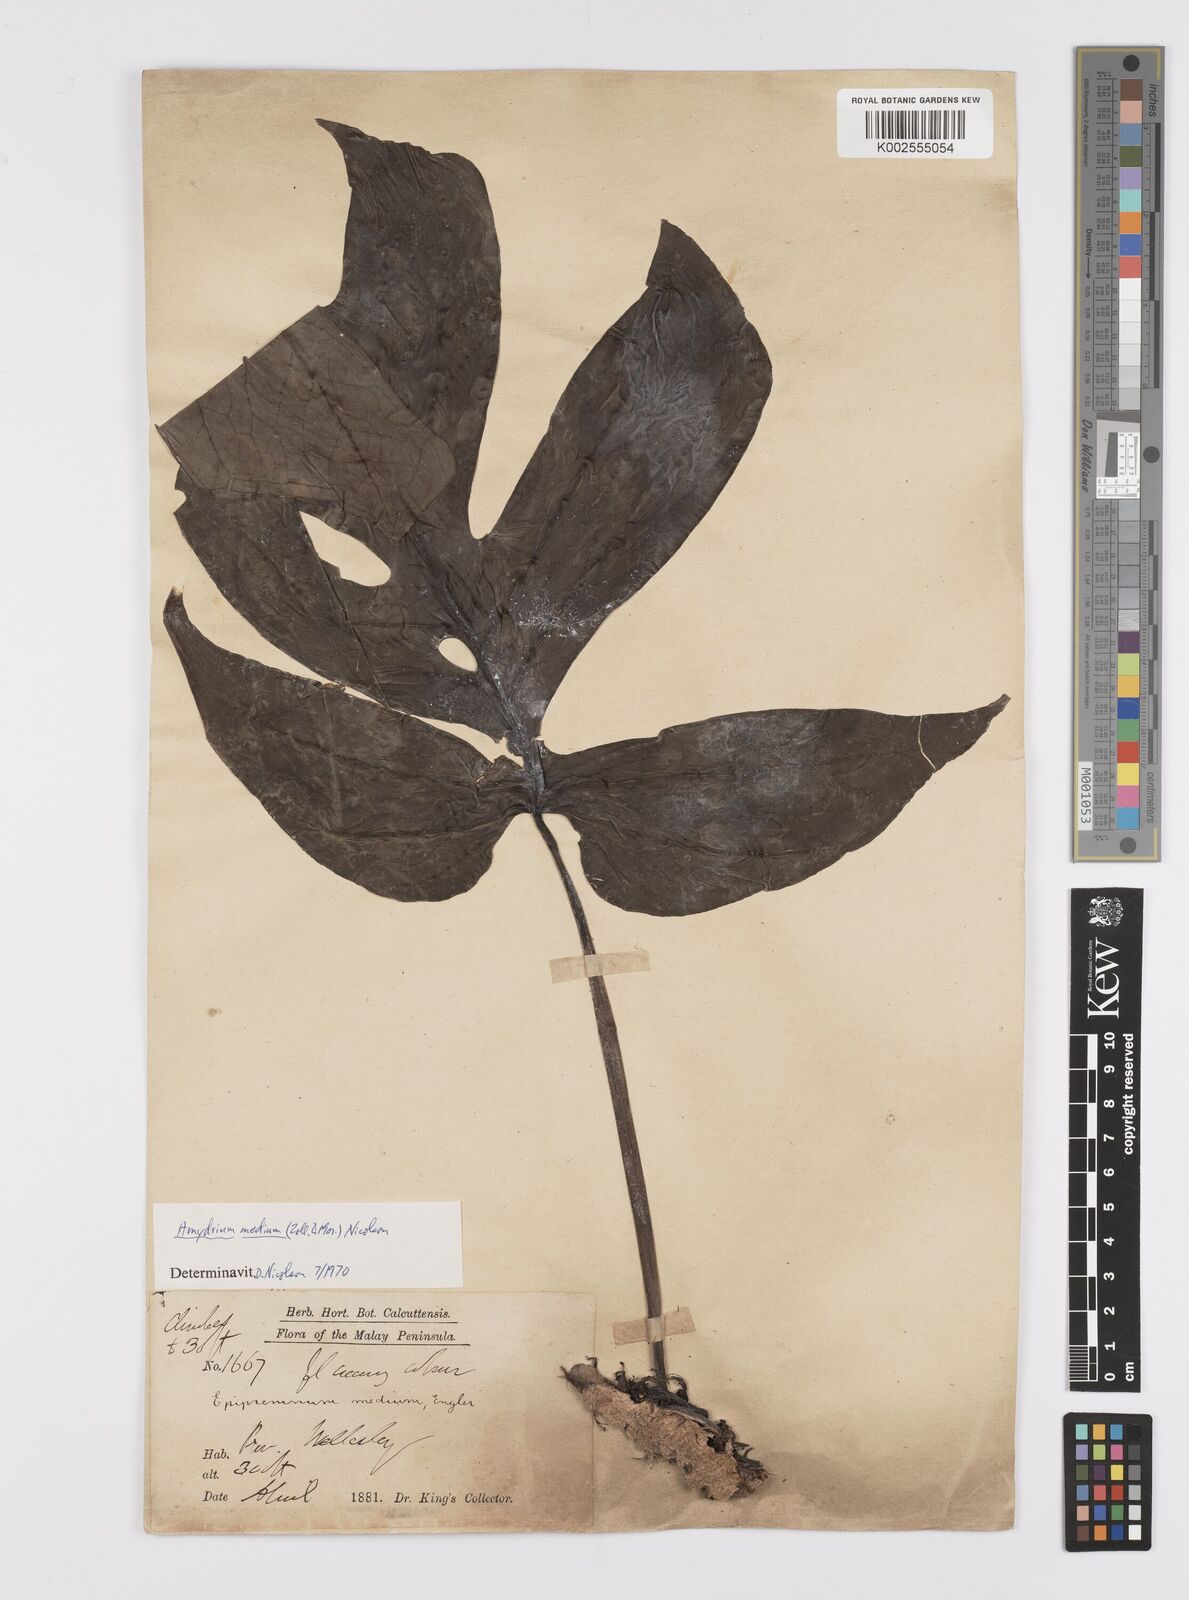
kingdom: Plantae
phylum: Tracheophyta
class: Liliopsida
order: Alismatales
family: Araceae
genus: Amydrium
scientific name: Amydrium medium
